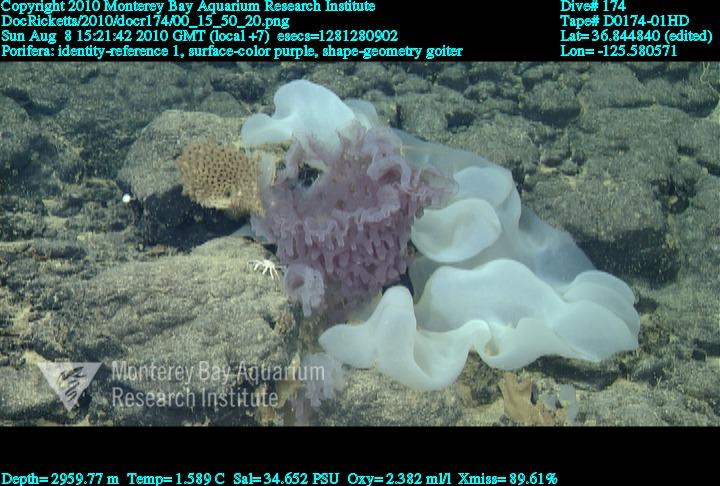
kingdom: Animalia
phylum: Porifera
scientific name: Porifera
